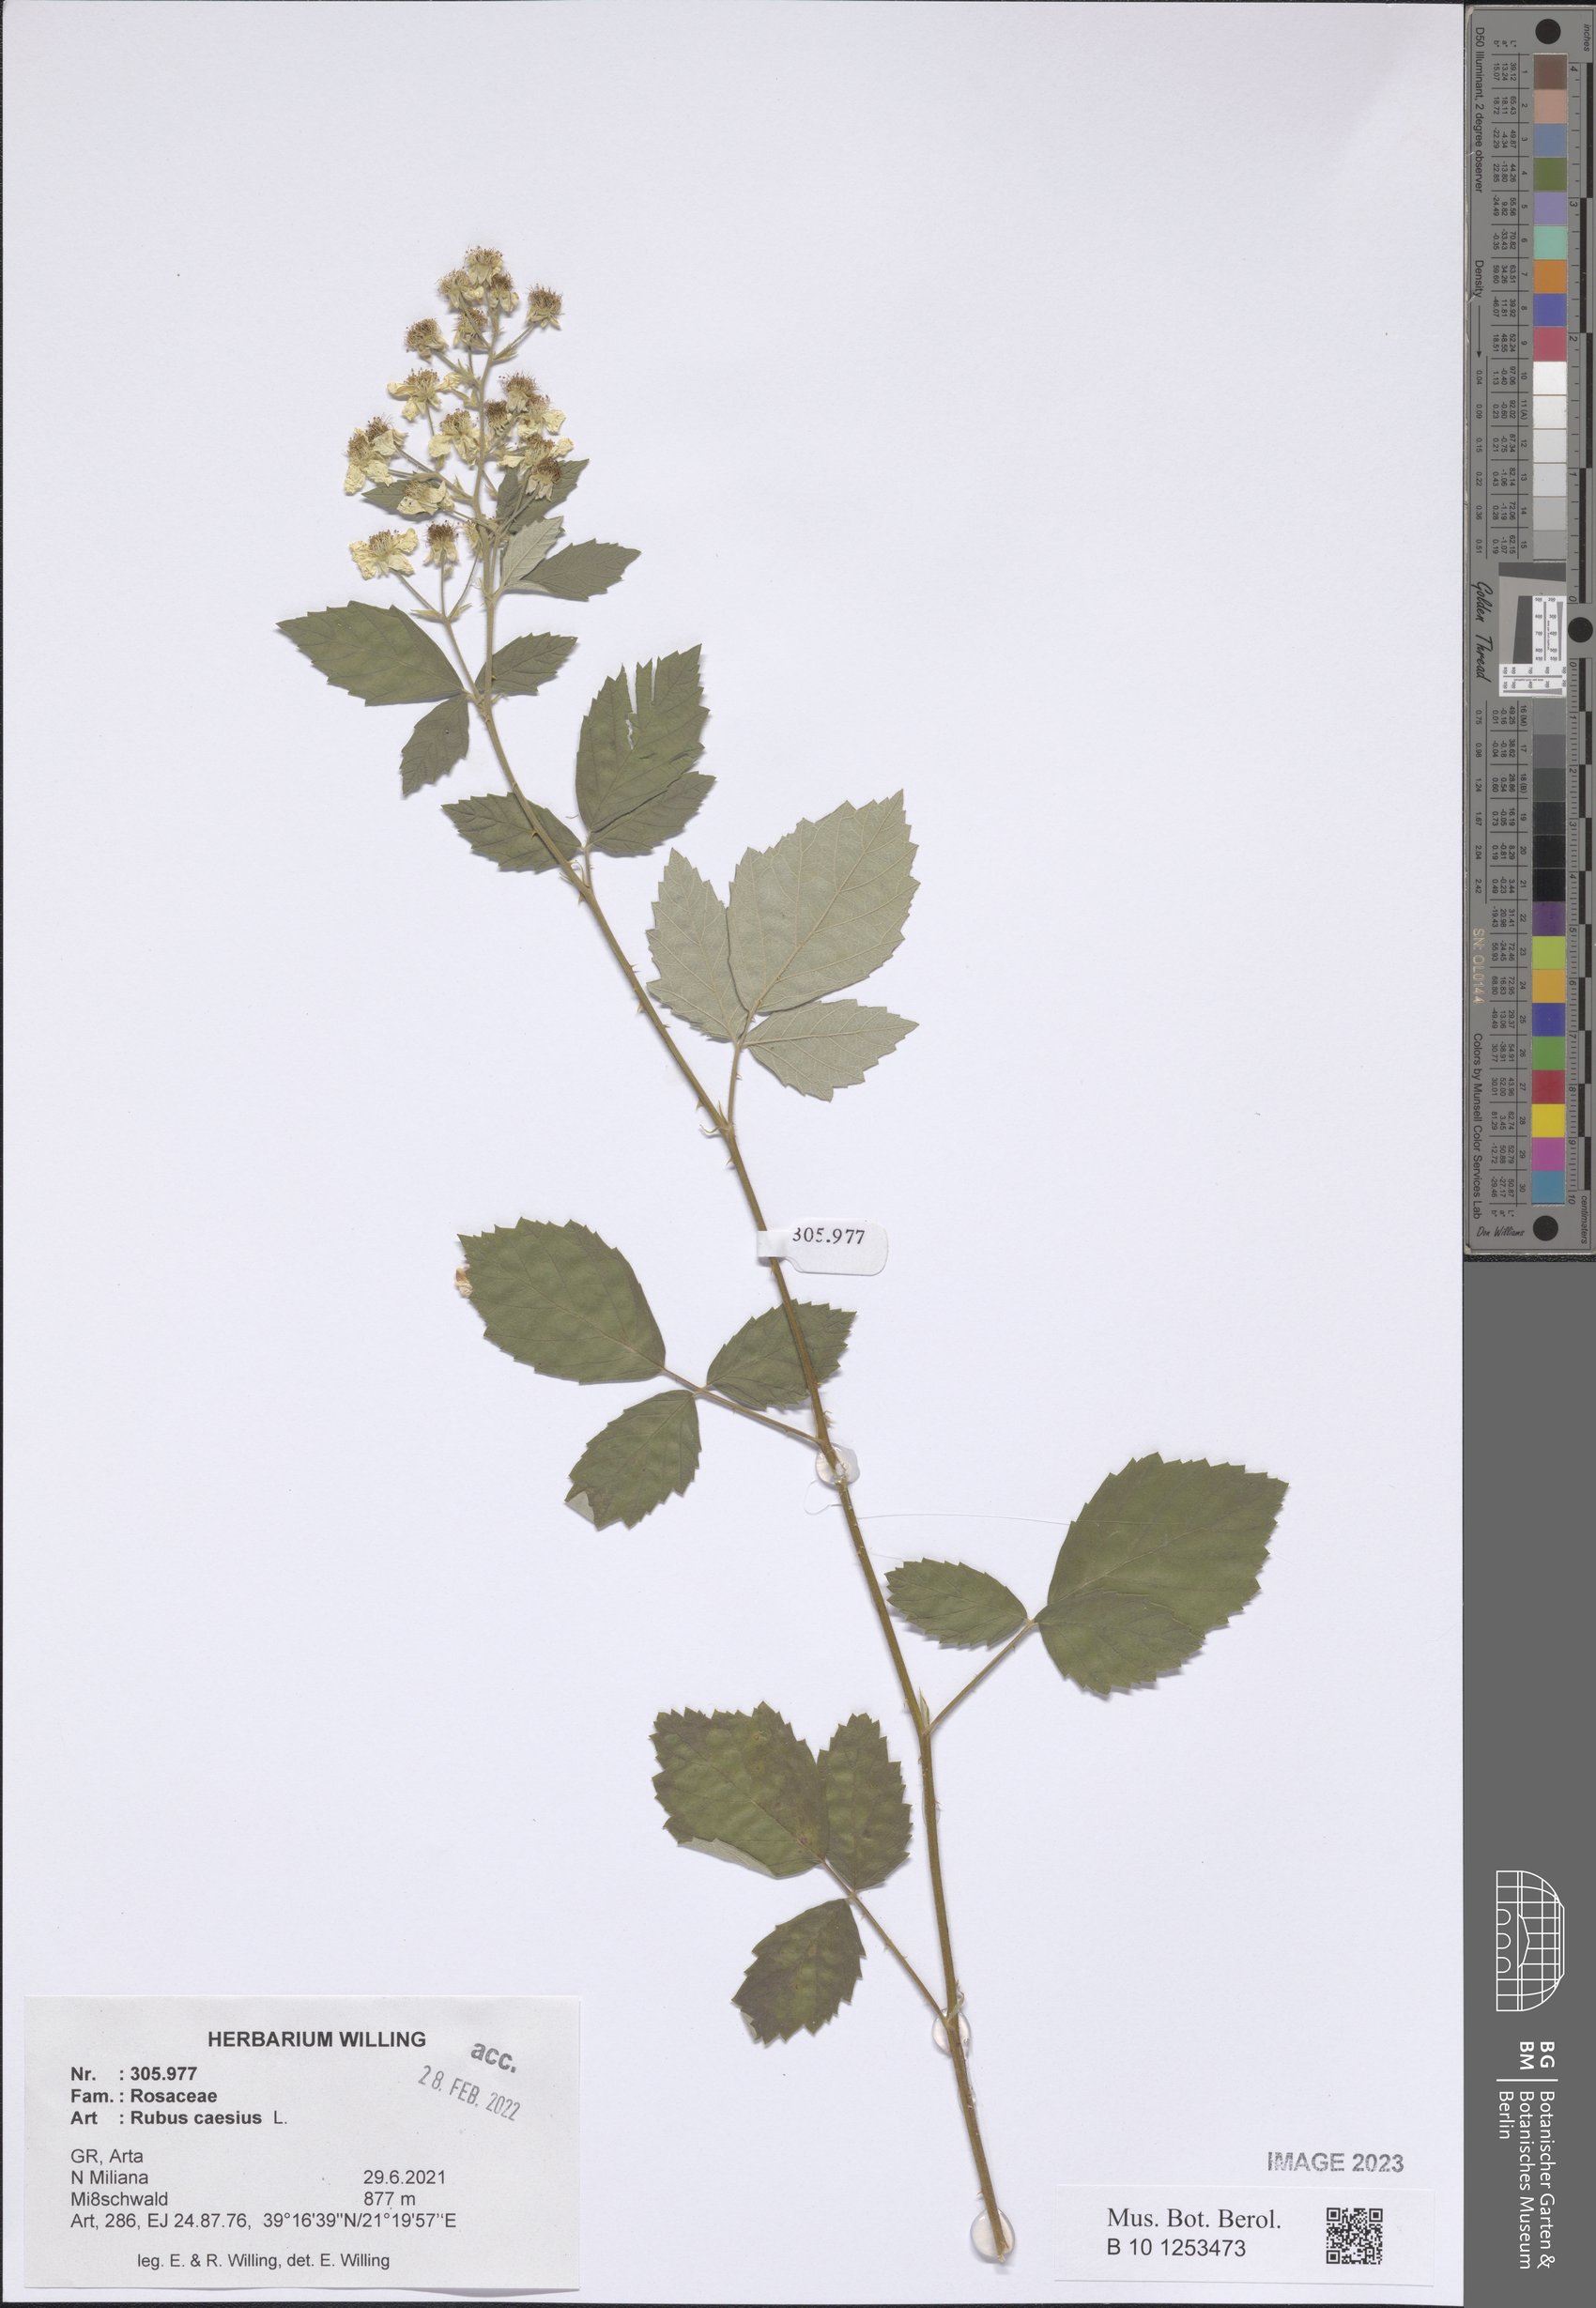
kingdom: Plantae
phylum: Tracheophyta
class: Magnoliopsida
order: Rosales
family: Rosaceae
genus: Rubus
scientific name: Rubus caesius
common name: Dewberry
